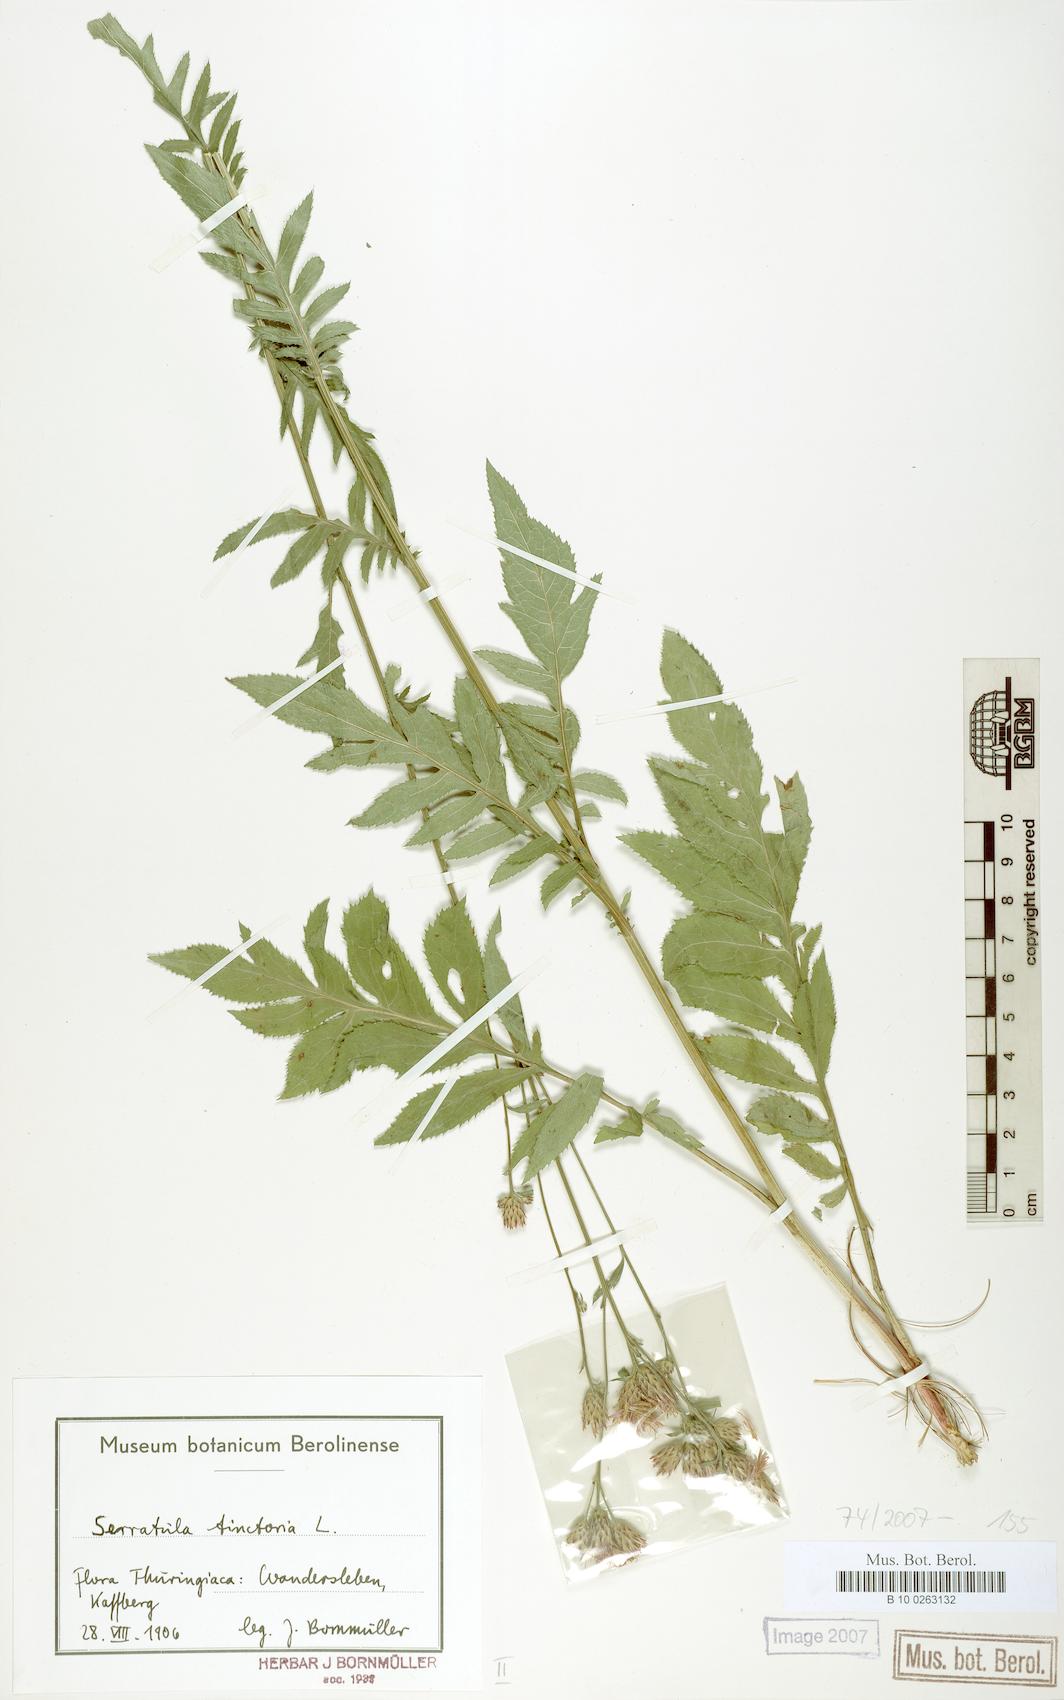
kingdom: Plantae
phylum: Tracheophyta
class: Magnoliopsida
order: Asterales
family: Asteraceae
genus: Serratula
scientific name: Serratula tinctoria
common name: Saw-wort
